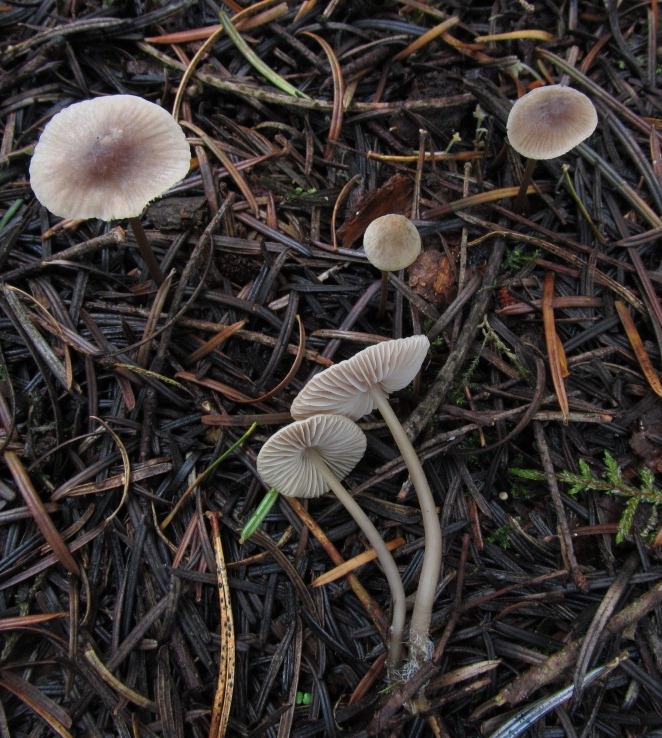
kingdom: Fungi
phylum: Basidiomycota
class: Agaricomycetes
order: Agaricales
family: Mycenaceae
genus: Mycena
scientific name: Mycena filopes
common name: jod-huesvamp
